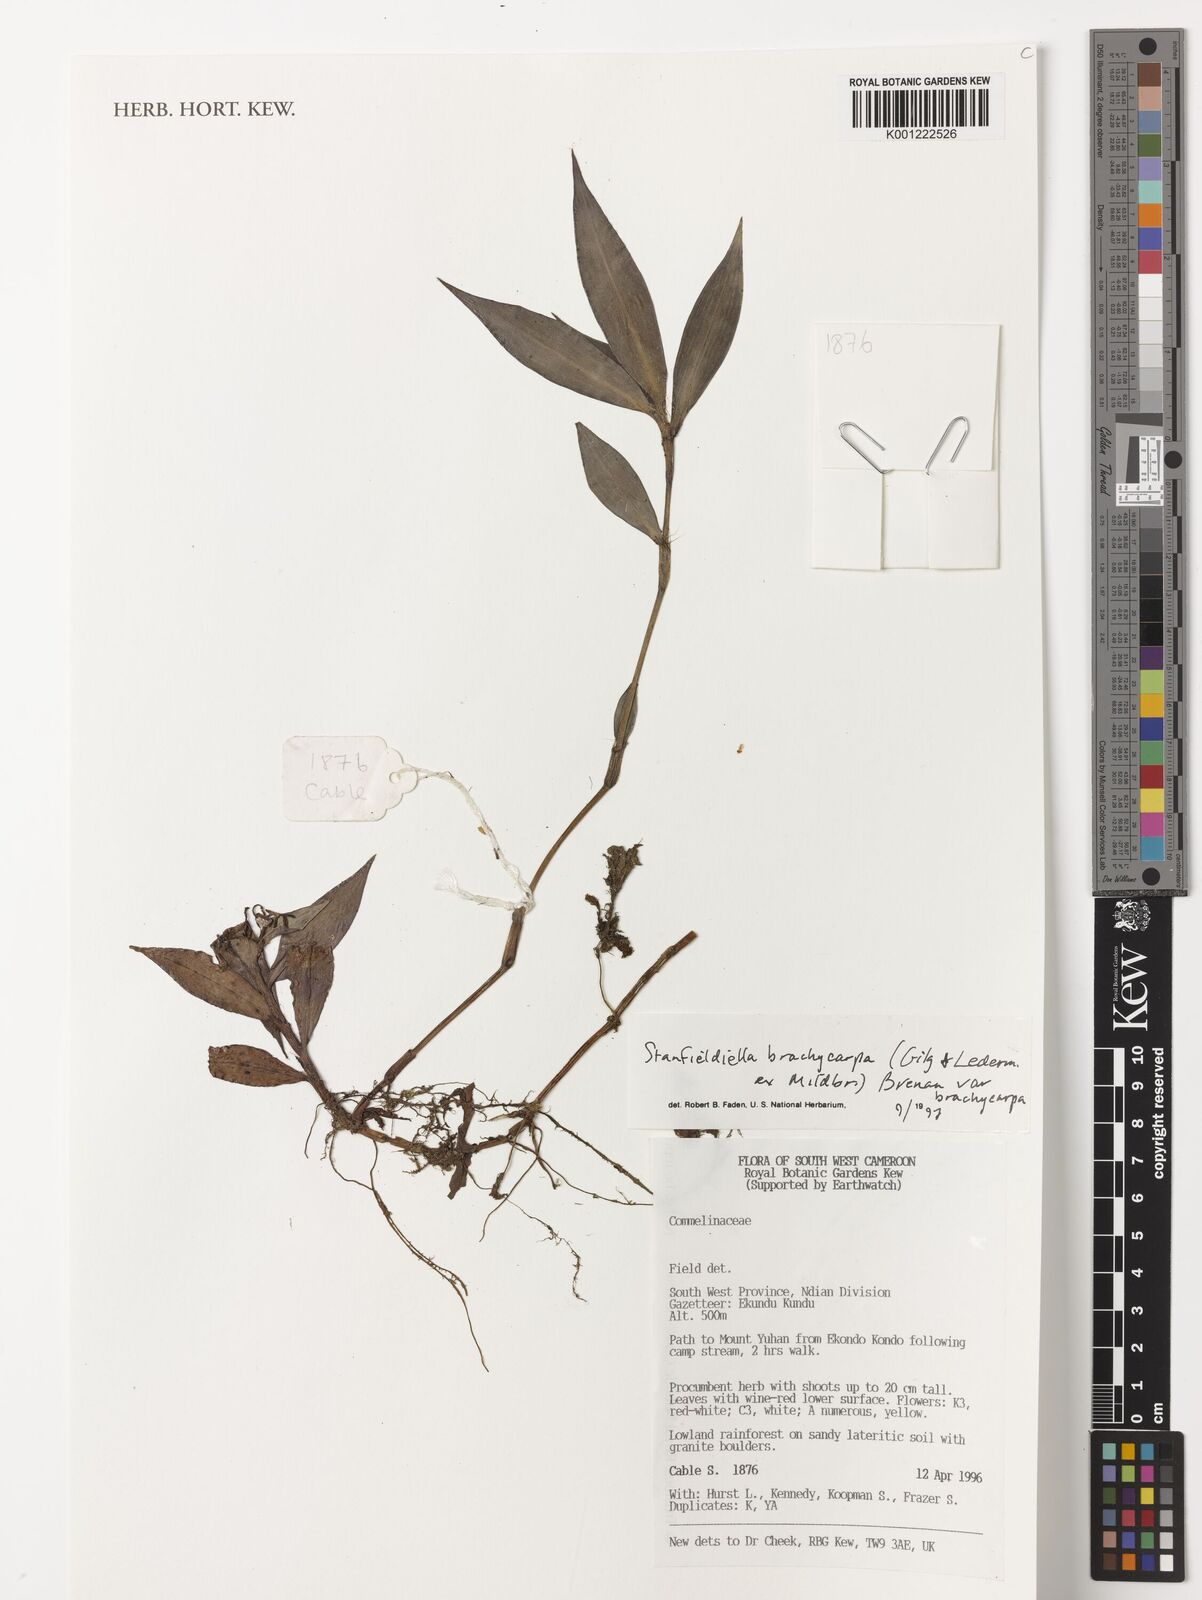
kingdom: Plantae
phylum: Tracheophyta
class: Liliopsida
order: Commelinales
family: Commelinaceae
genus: Stanfieldiella
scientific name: Stanfieldiella brachycarpa
